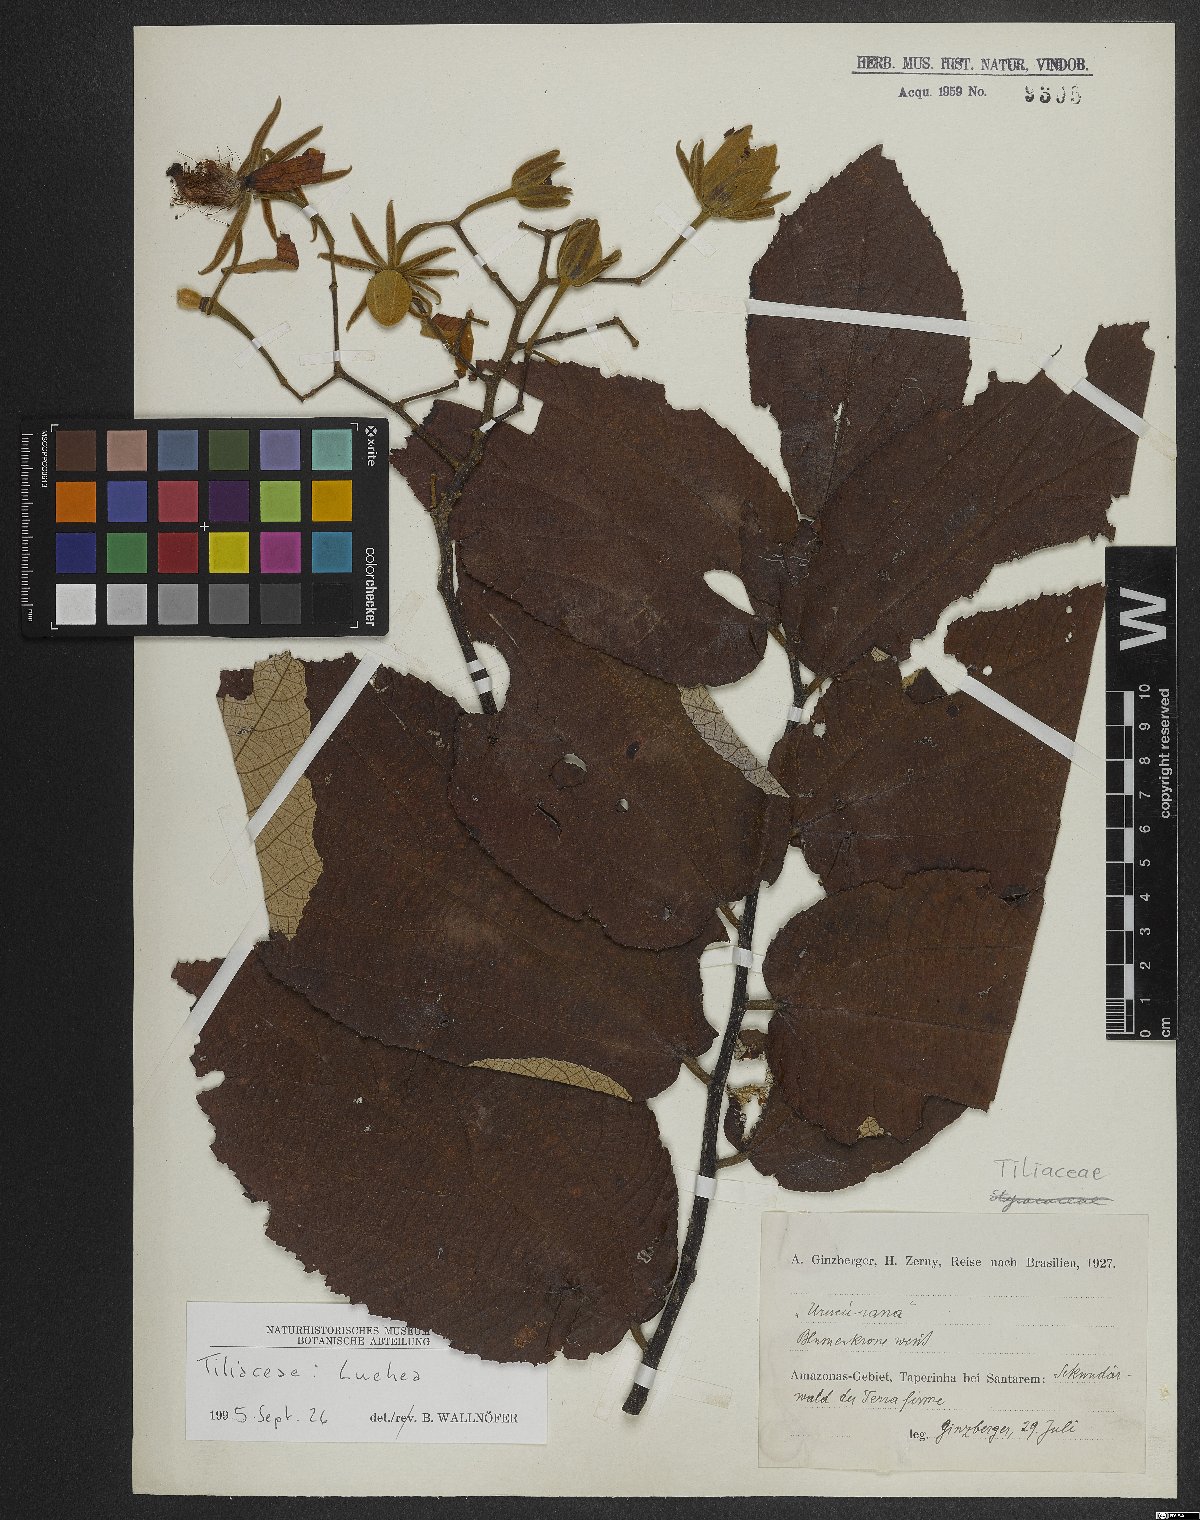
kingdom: Plantae
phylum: Tracheophyta
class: Magnoliopsida
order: Malvales
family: Malvaceae
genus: Luehea
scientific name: Luehea
